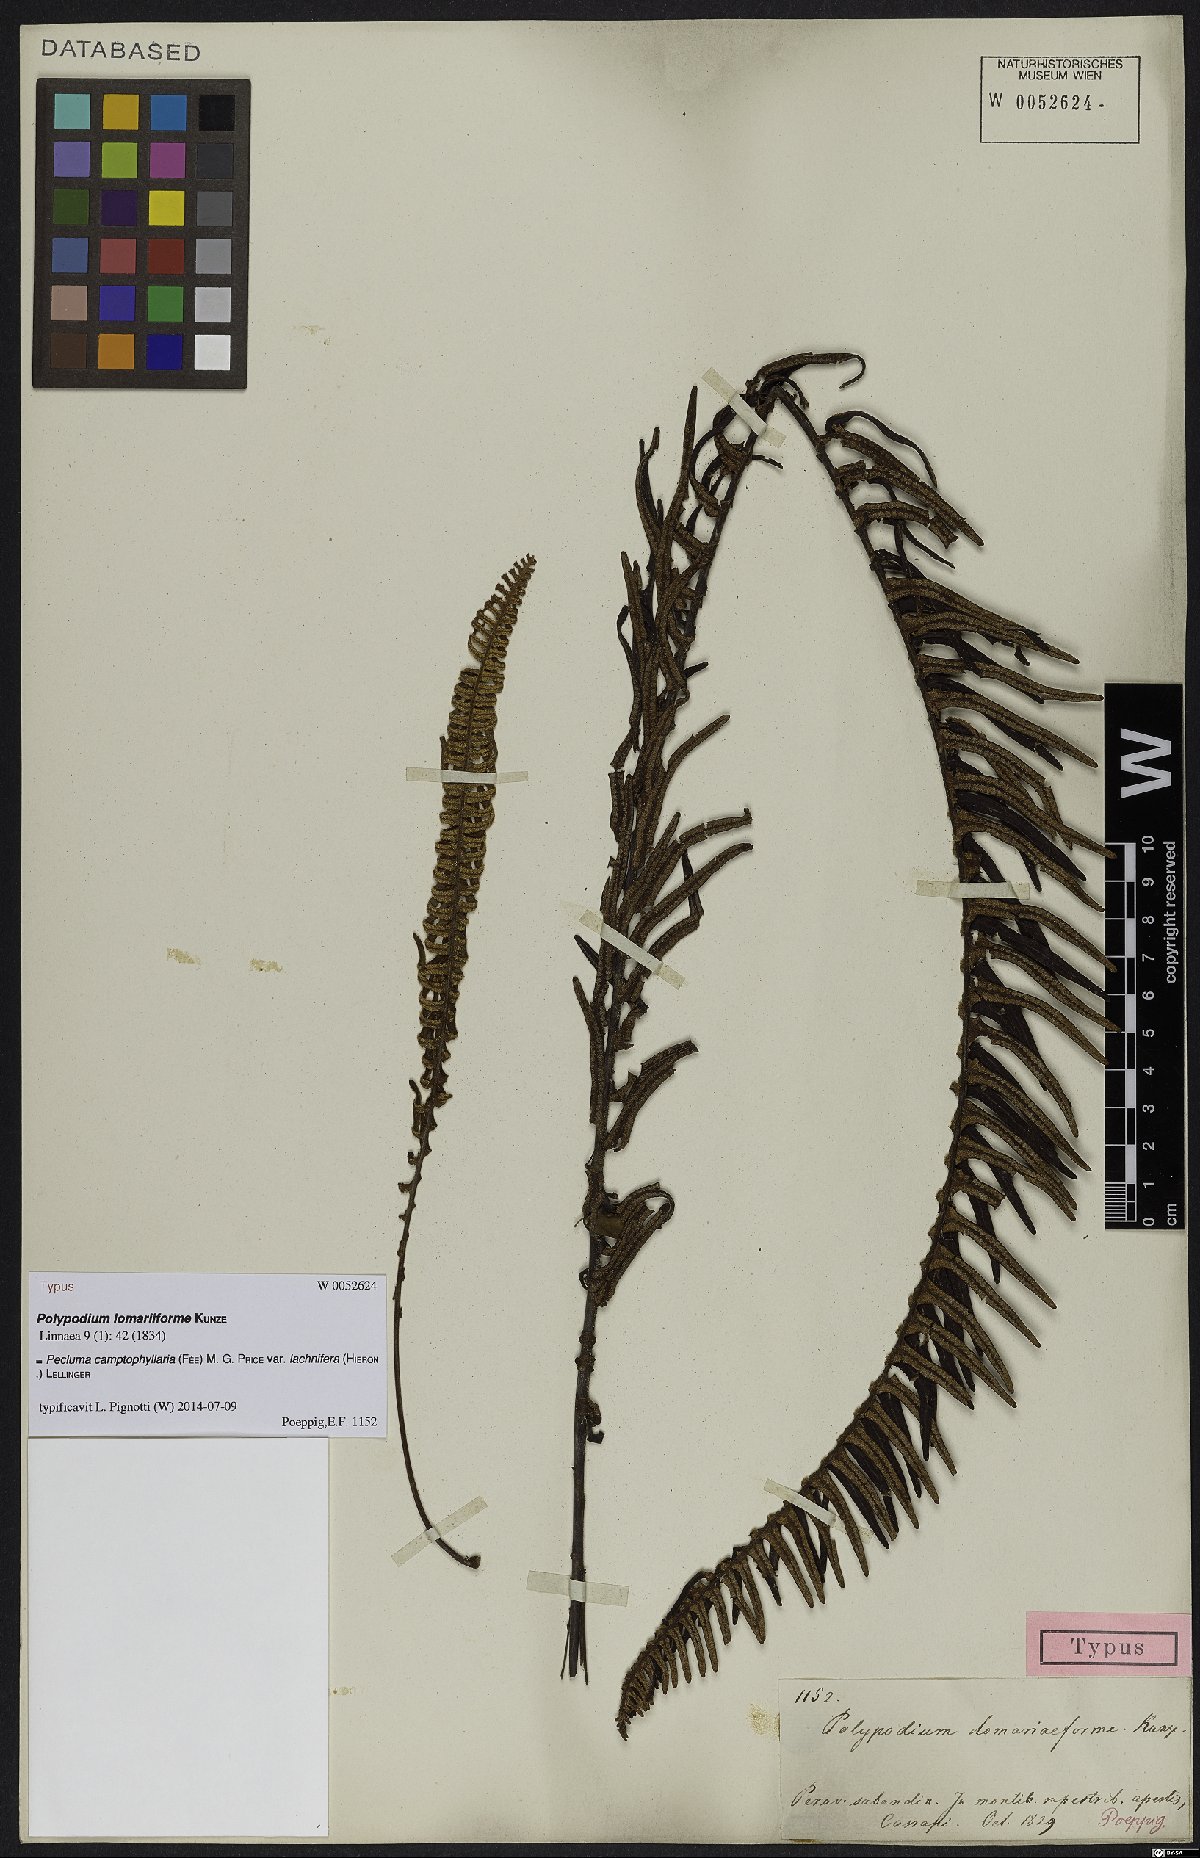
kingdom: Plantae
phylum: Tracheophyta
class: Polypodiopsida
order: Polypodiales
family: Polypodiaceae
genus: Pecluma
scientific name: Pecluma camptophyllaria
